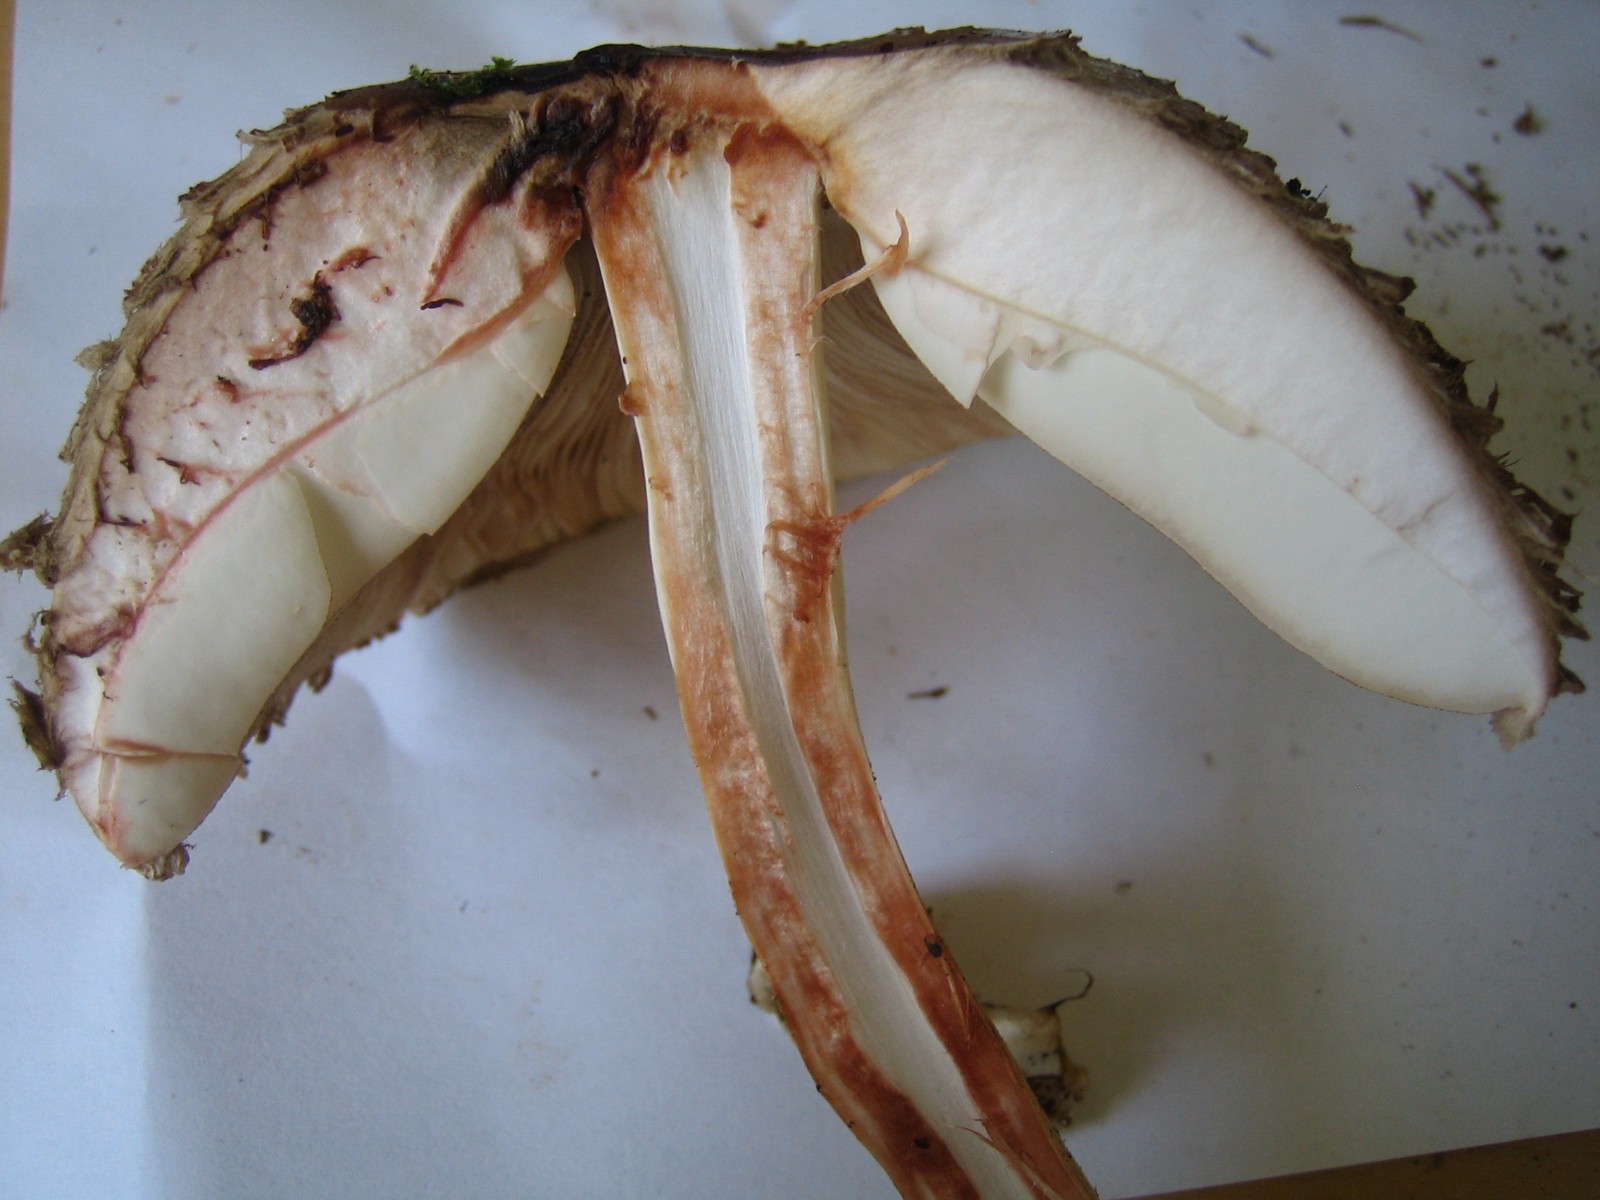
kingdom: Fungi
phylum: Basidiomycota
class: Agaricomycetes
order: Agaricales
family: Agaricaceae
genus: Chlorophyllum
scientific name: Chlorophyllum olivieri
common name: almindelig rabarberhat
